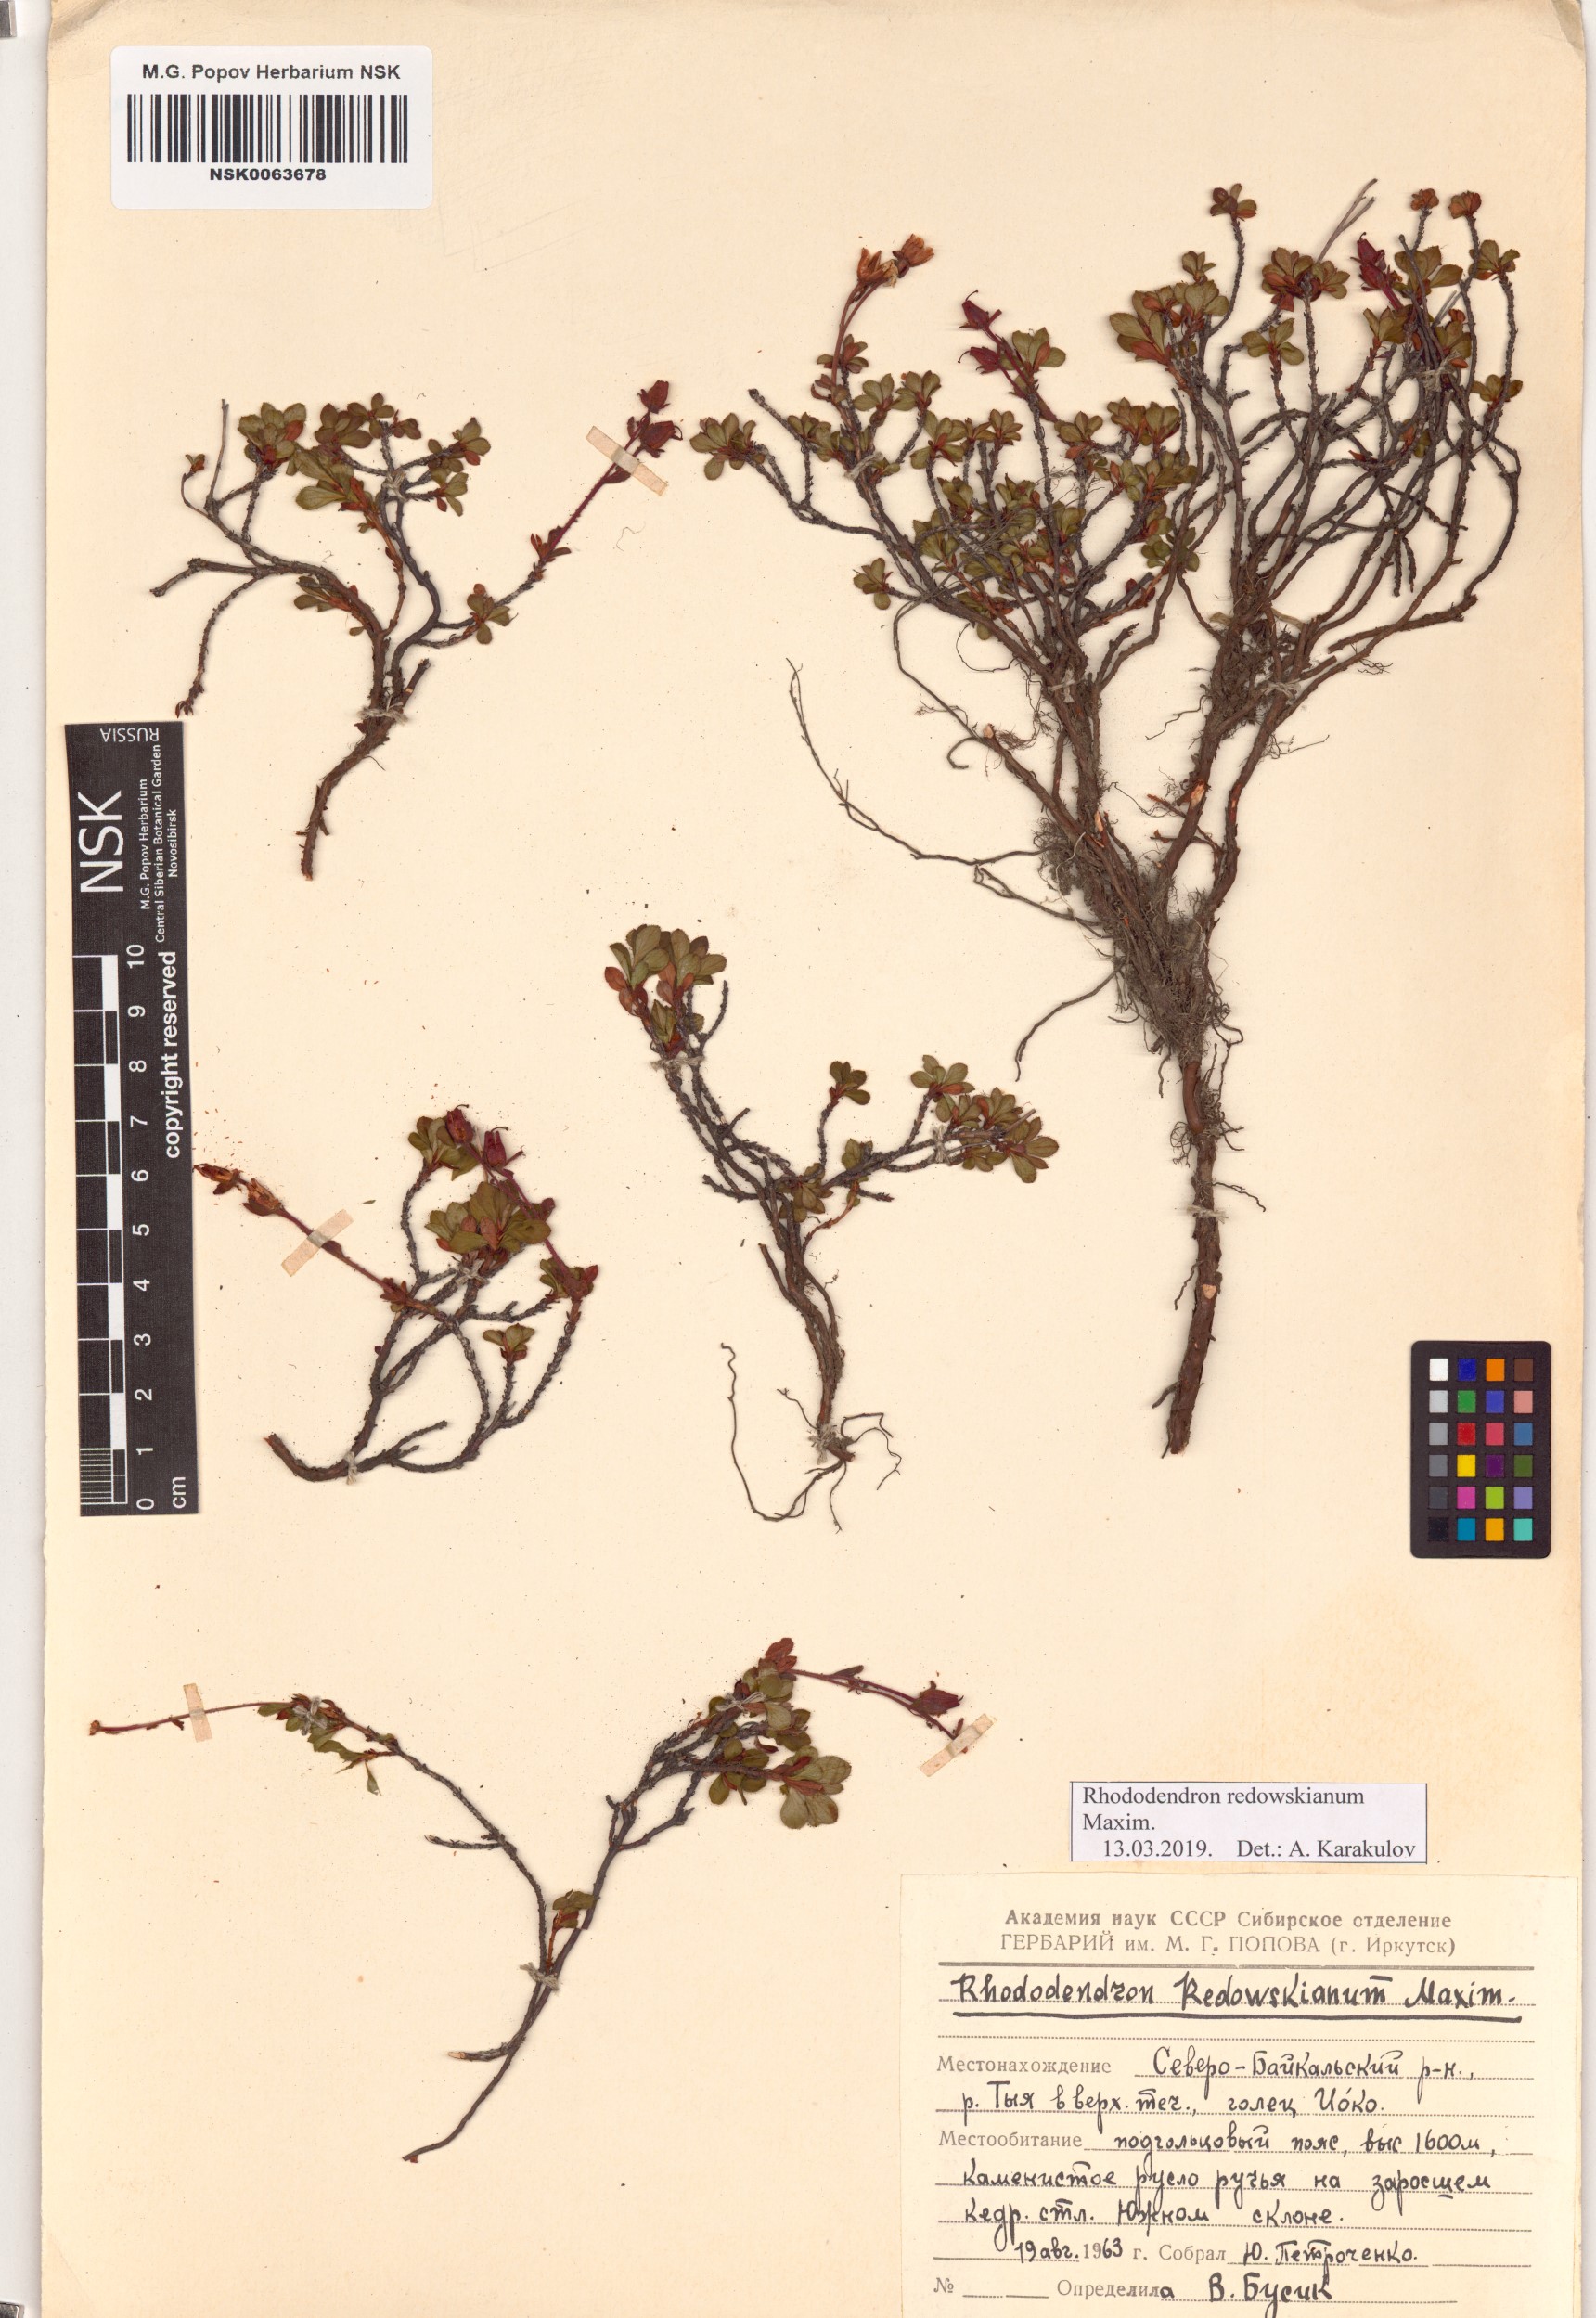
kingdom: Plantae
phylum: Tracheophyta
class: Magnoliopsida
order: Ericales
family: Ericaceae
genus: Rhododendron
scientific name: Rhododendron redowskianum
